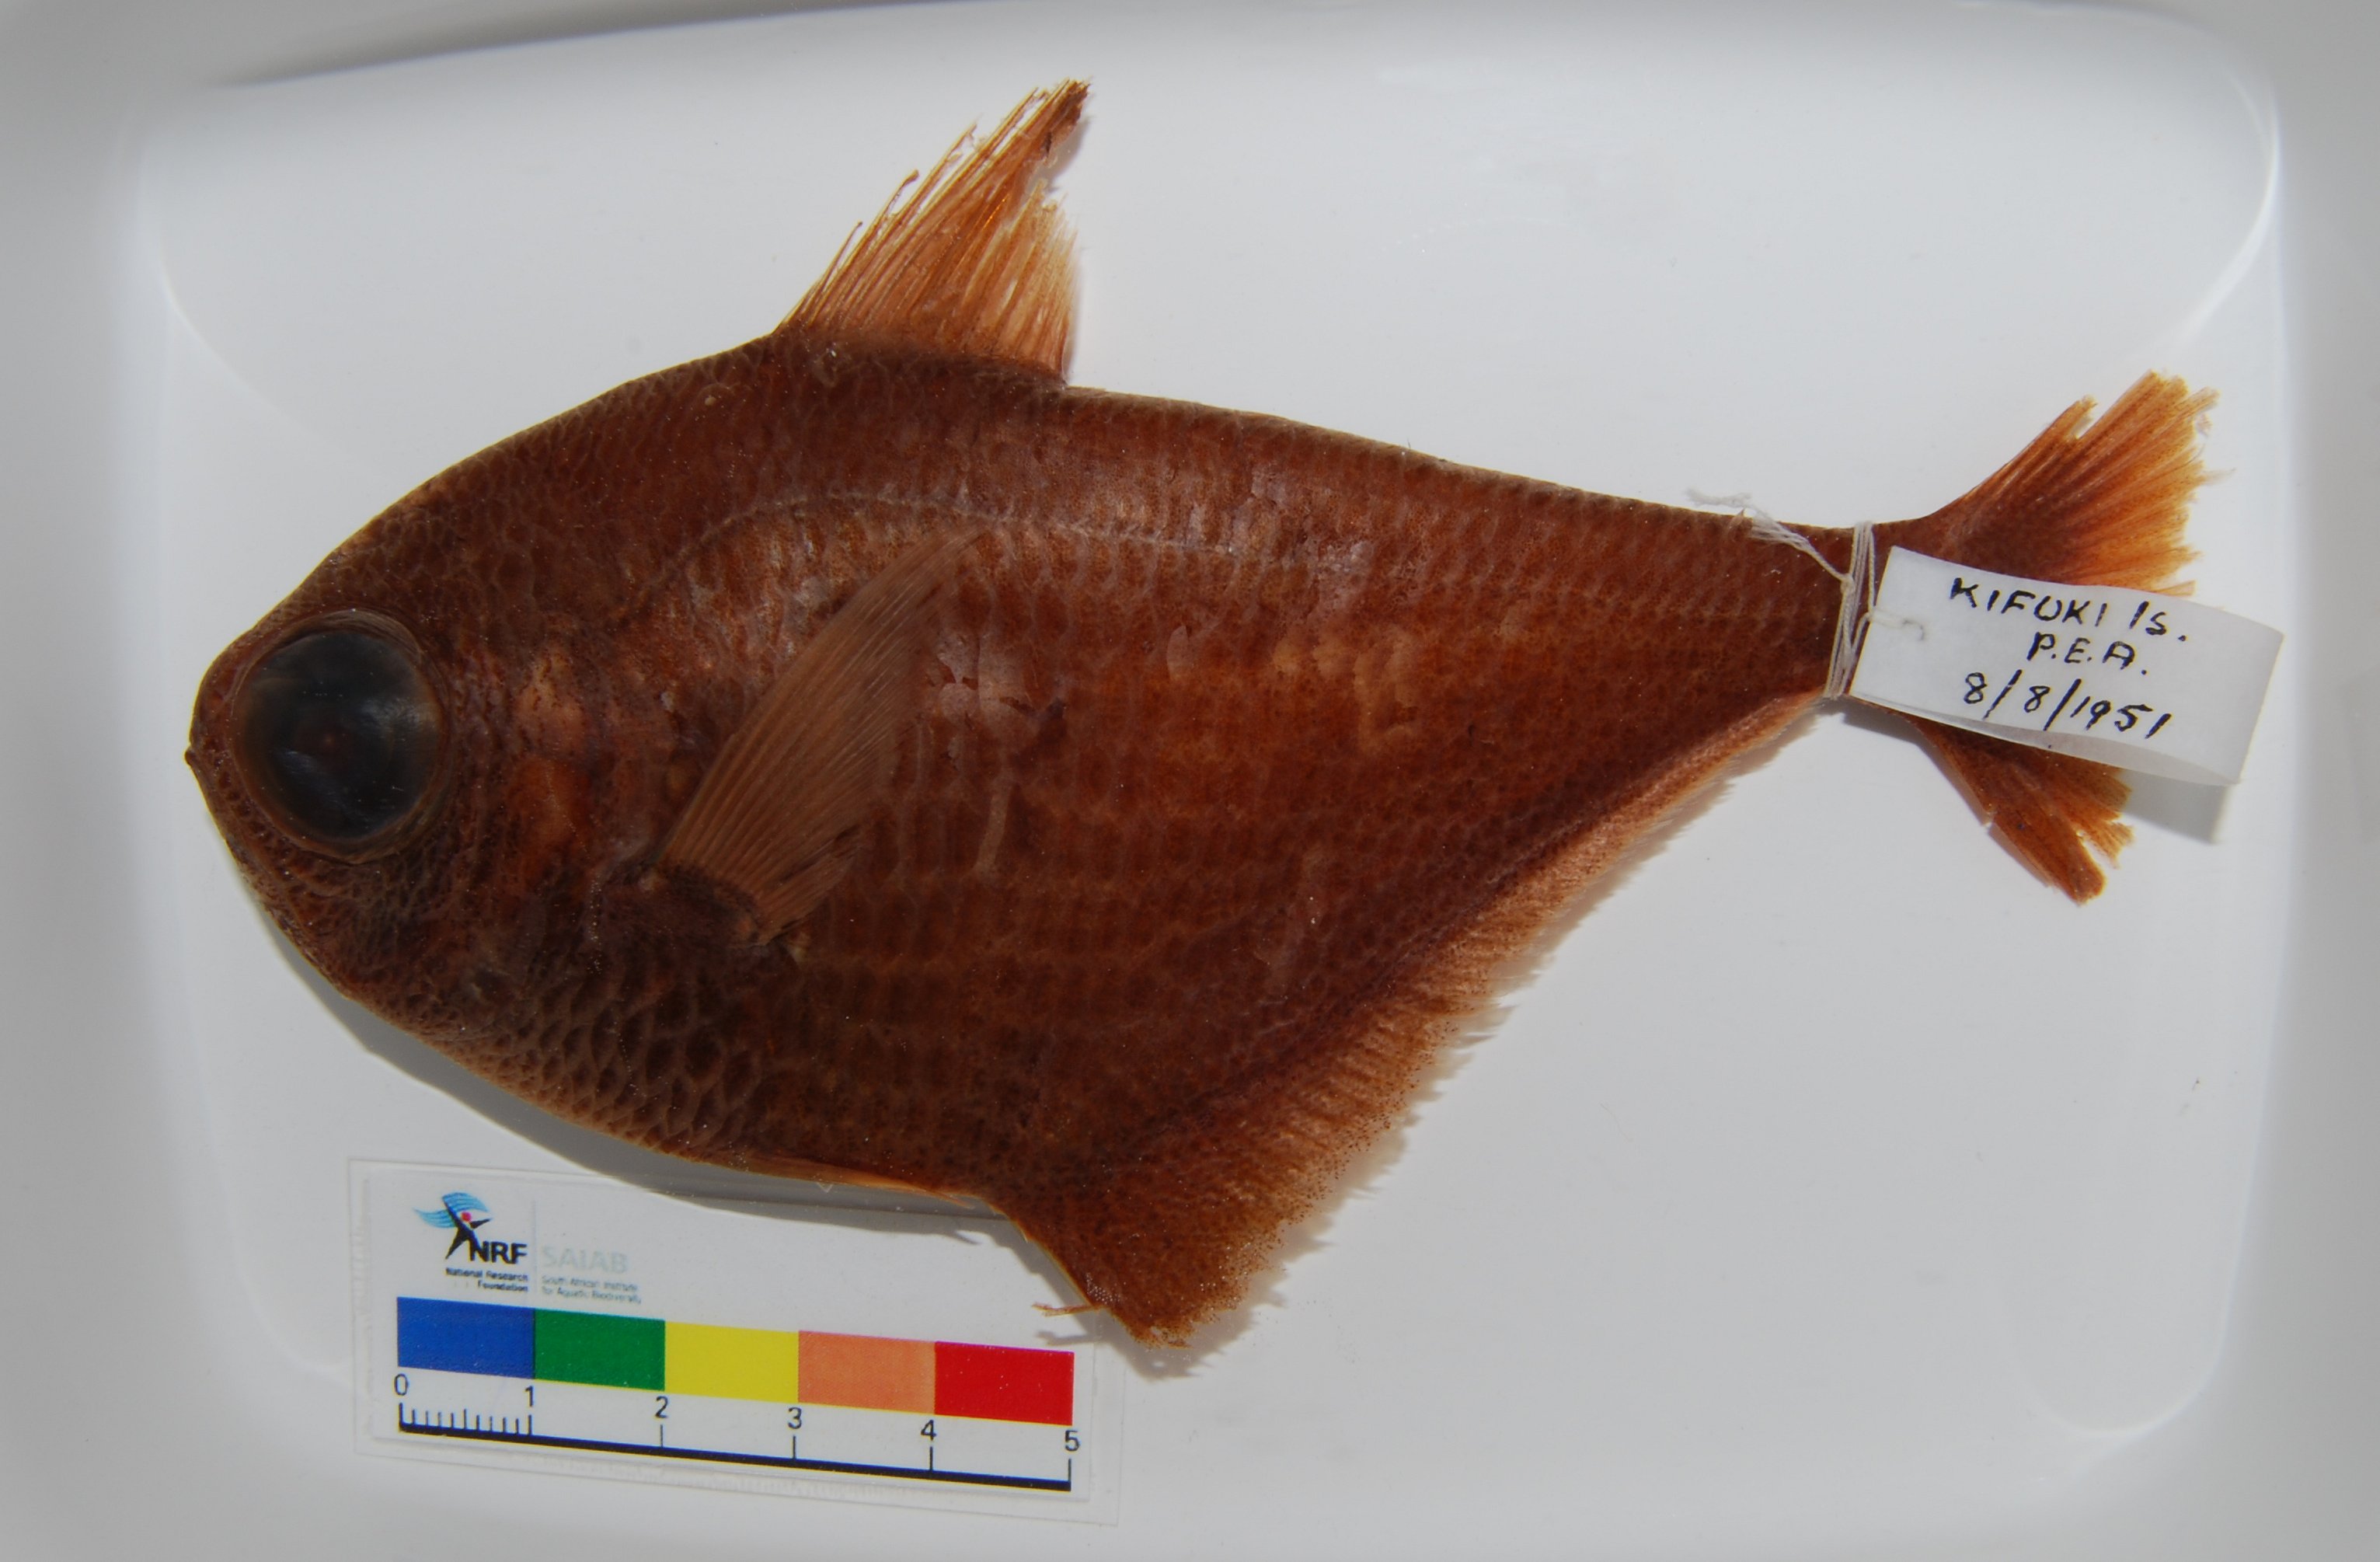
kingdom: Animalia
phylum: Chordata
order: Perciformes
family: Pempheridae
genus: Pempheris
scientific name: Pempheris cuprea
